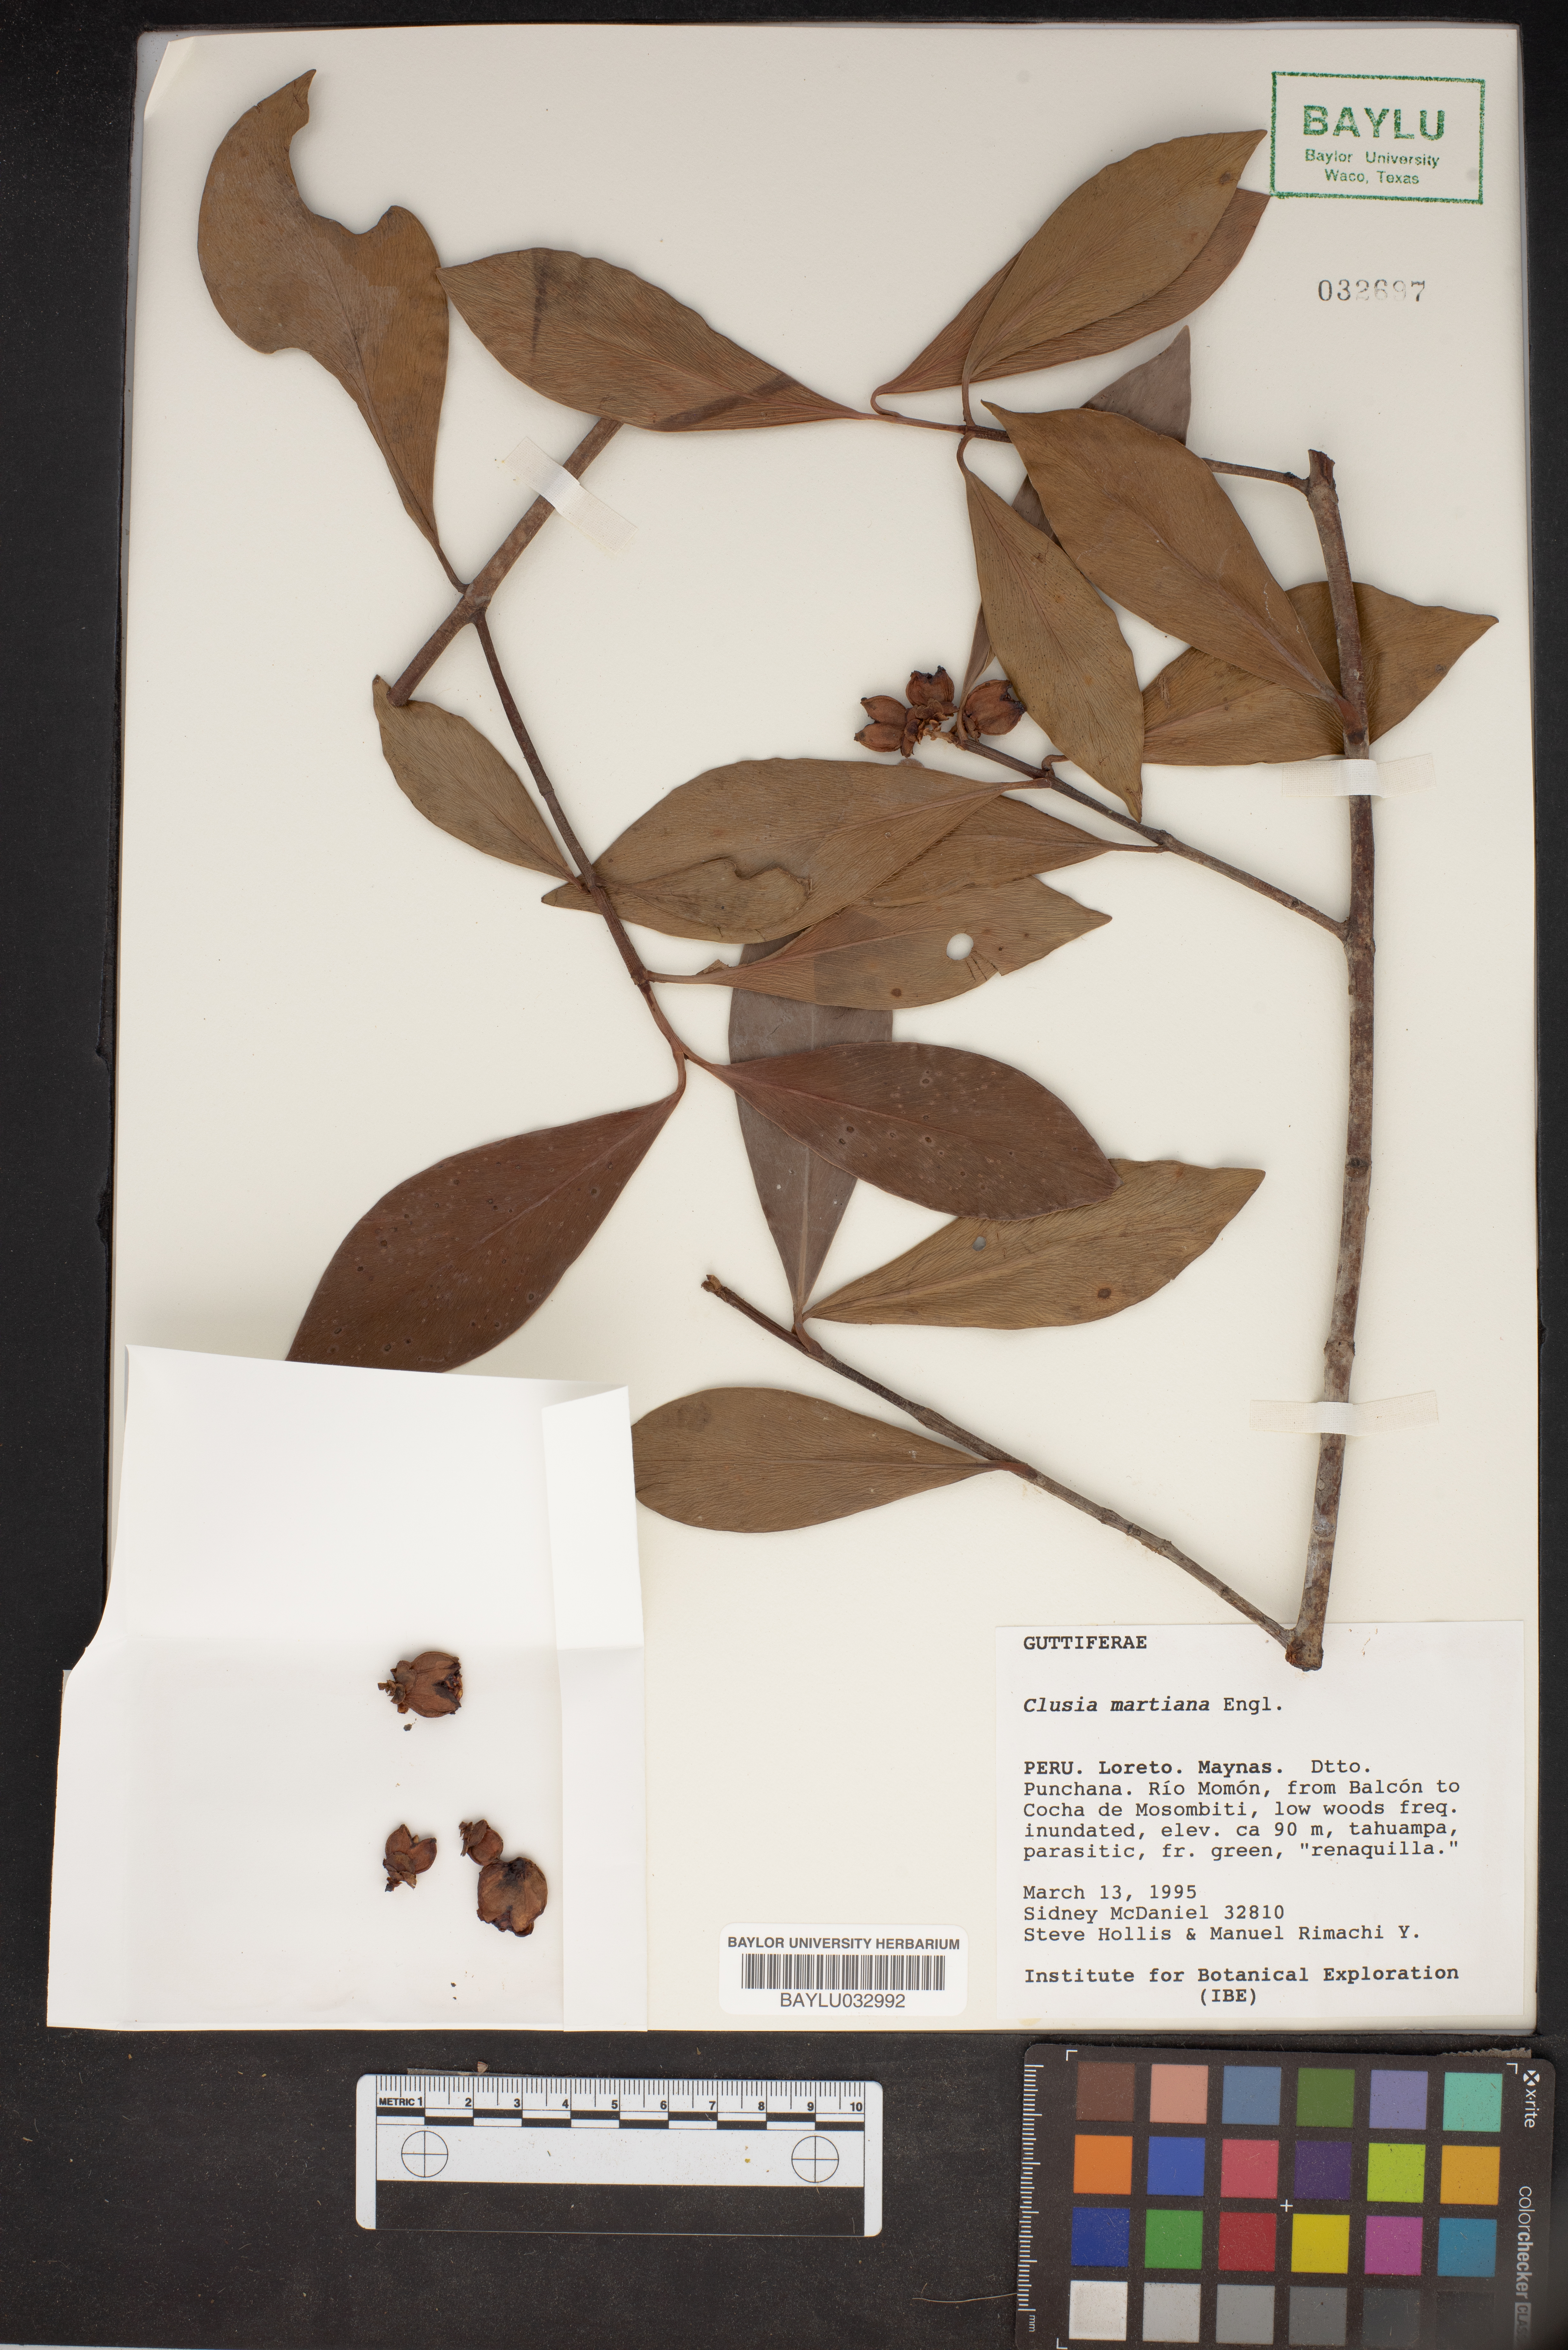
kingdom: Plantae
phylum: Tracheophyta
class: Magnoliopsida
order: Malpighiales
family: Clusiaceae
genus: Clusia
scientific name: Clusia martiana
